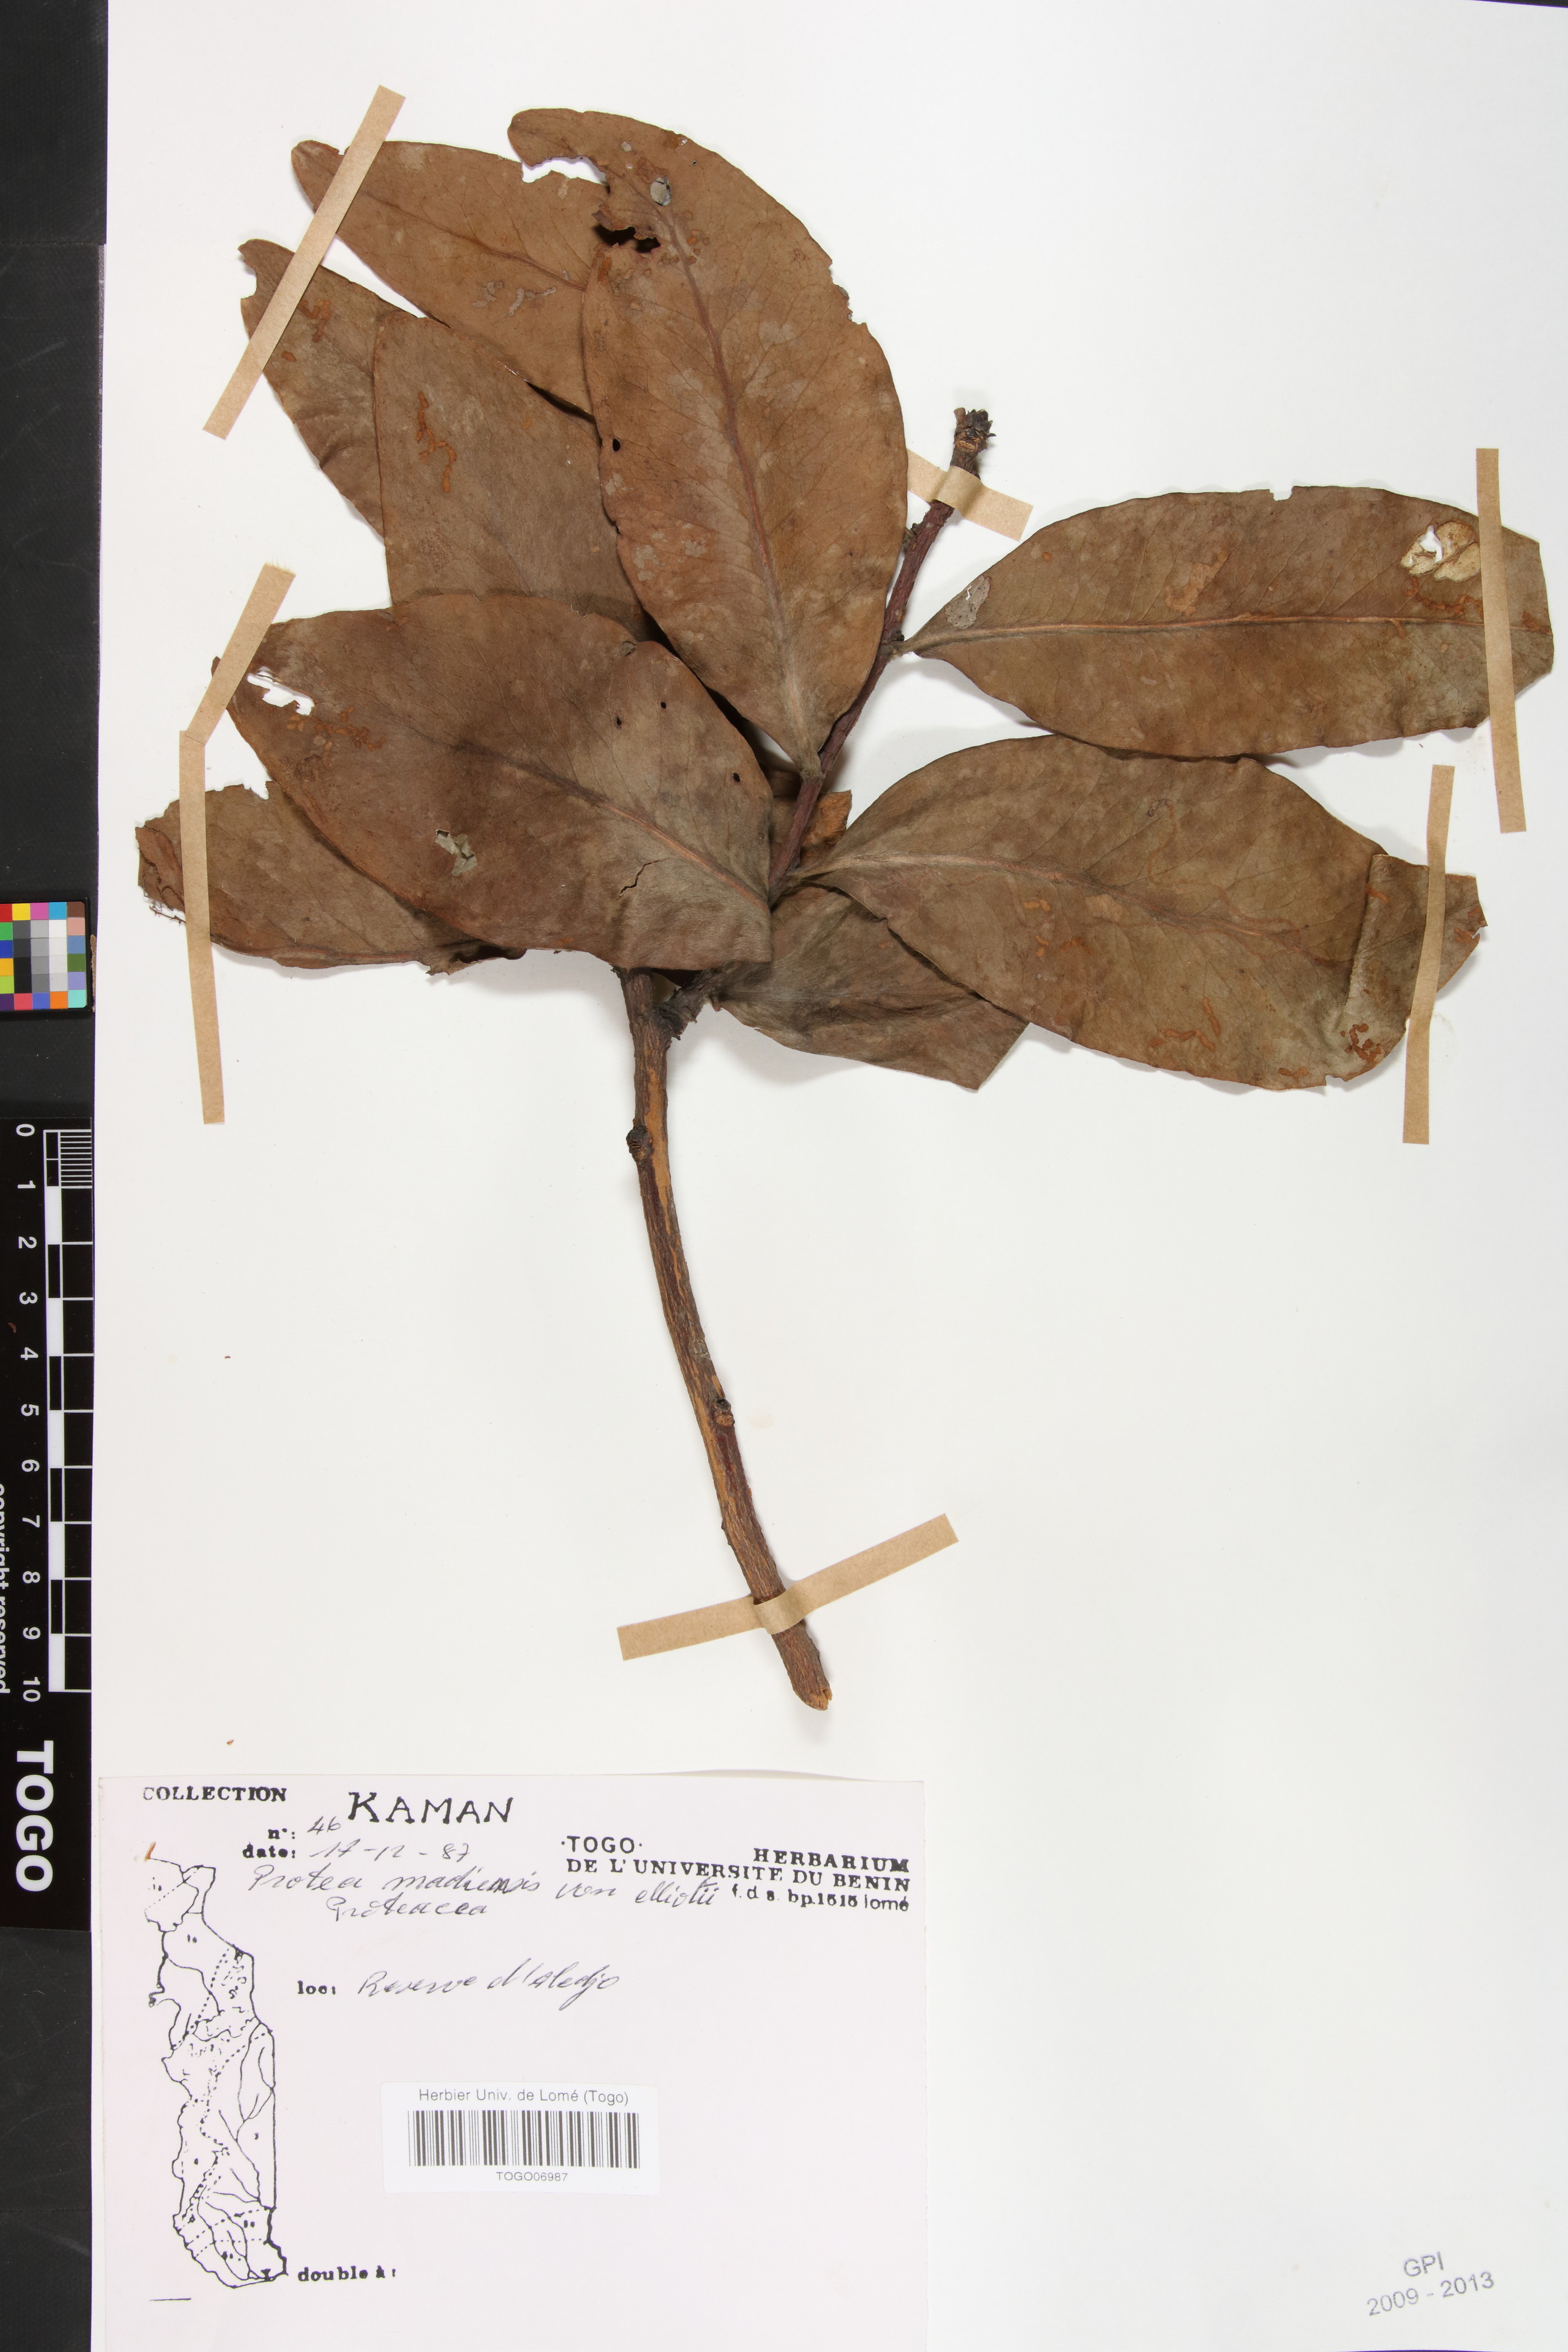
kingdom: Plantae
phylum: Tracheophyta
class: Magnoliopsida
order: Proteales
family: Proteaceae
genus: Protea
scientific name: Protea madiensis
